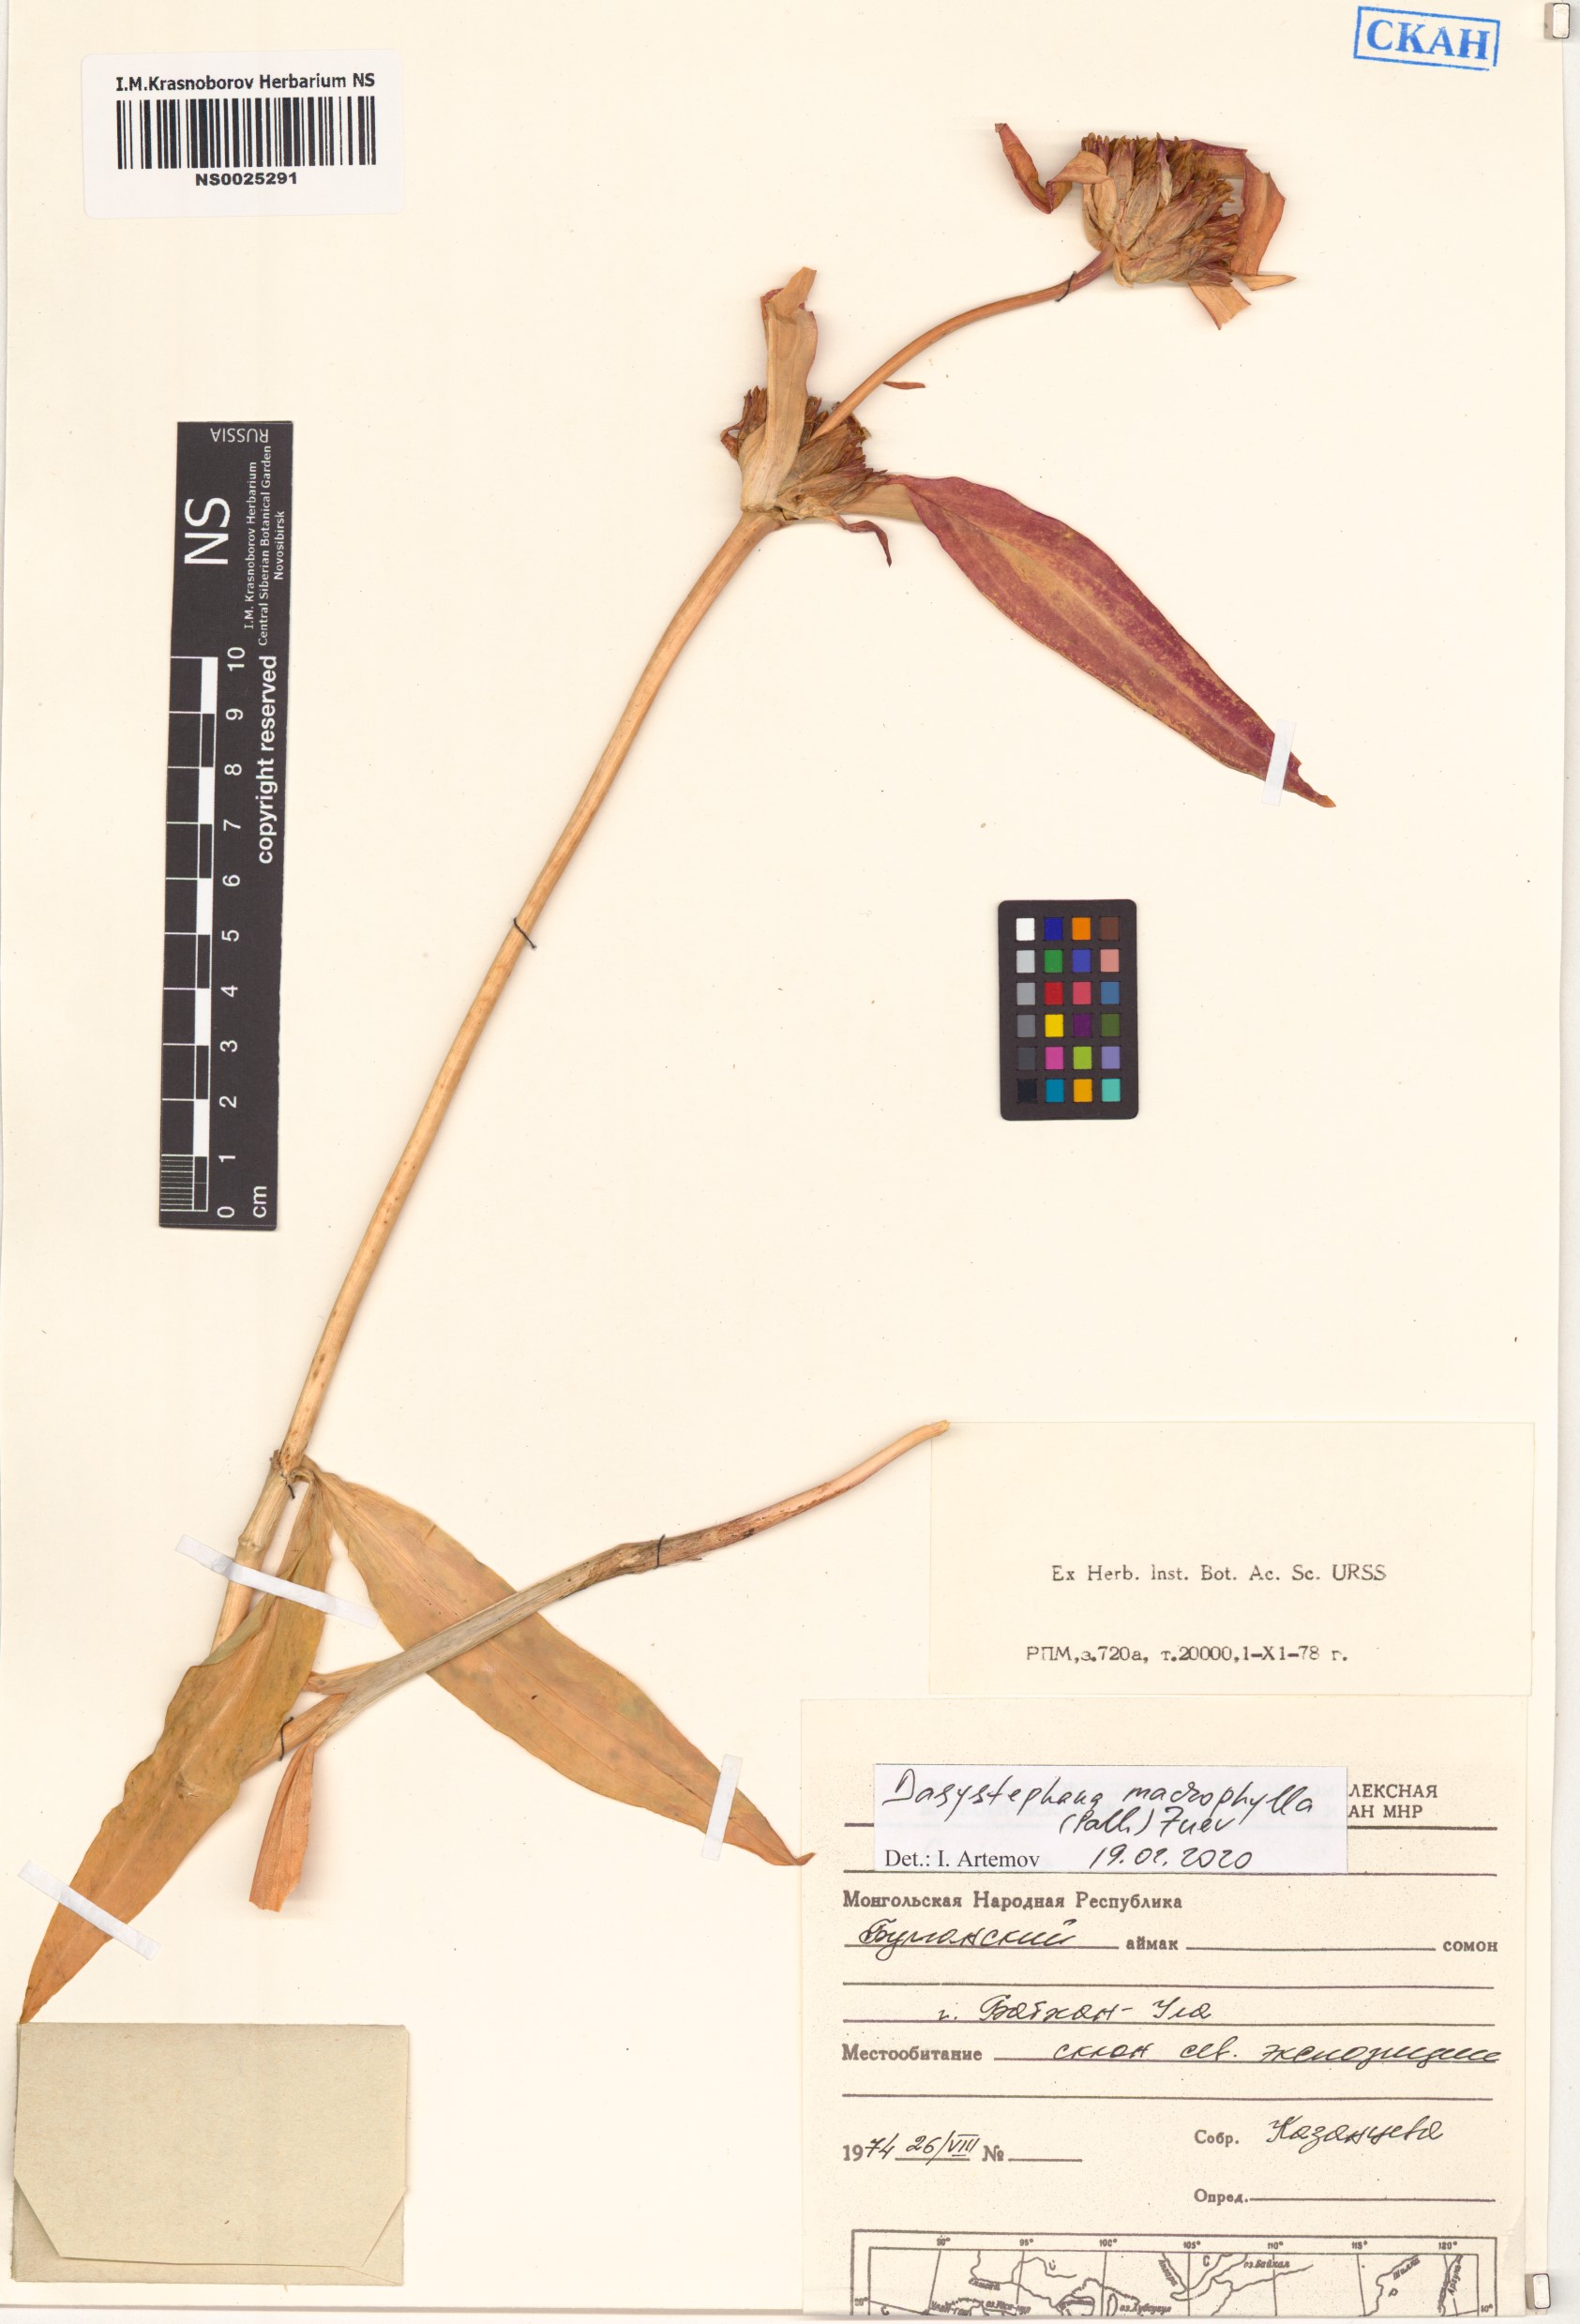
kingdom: Plantae
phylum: Tracheophyta
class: Magnoliopsida
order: Gentianales
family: Gentianaceae
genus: Gentiana
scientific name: Gentiana macrophylla
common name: Large-leaf gentian
